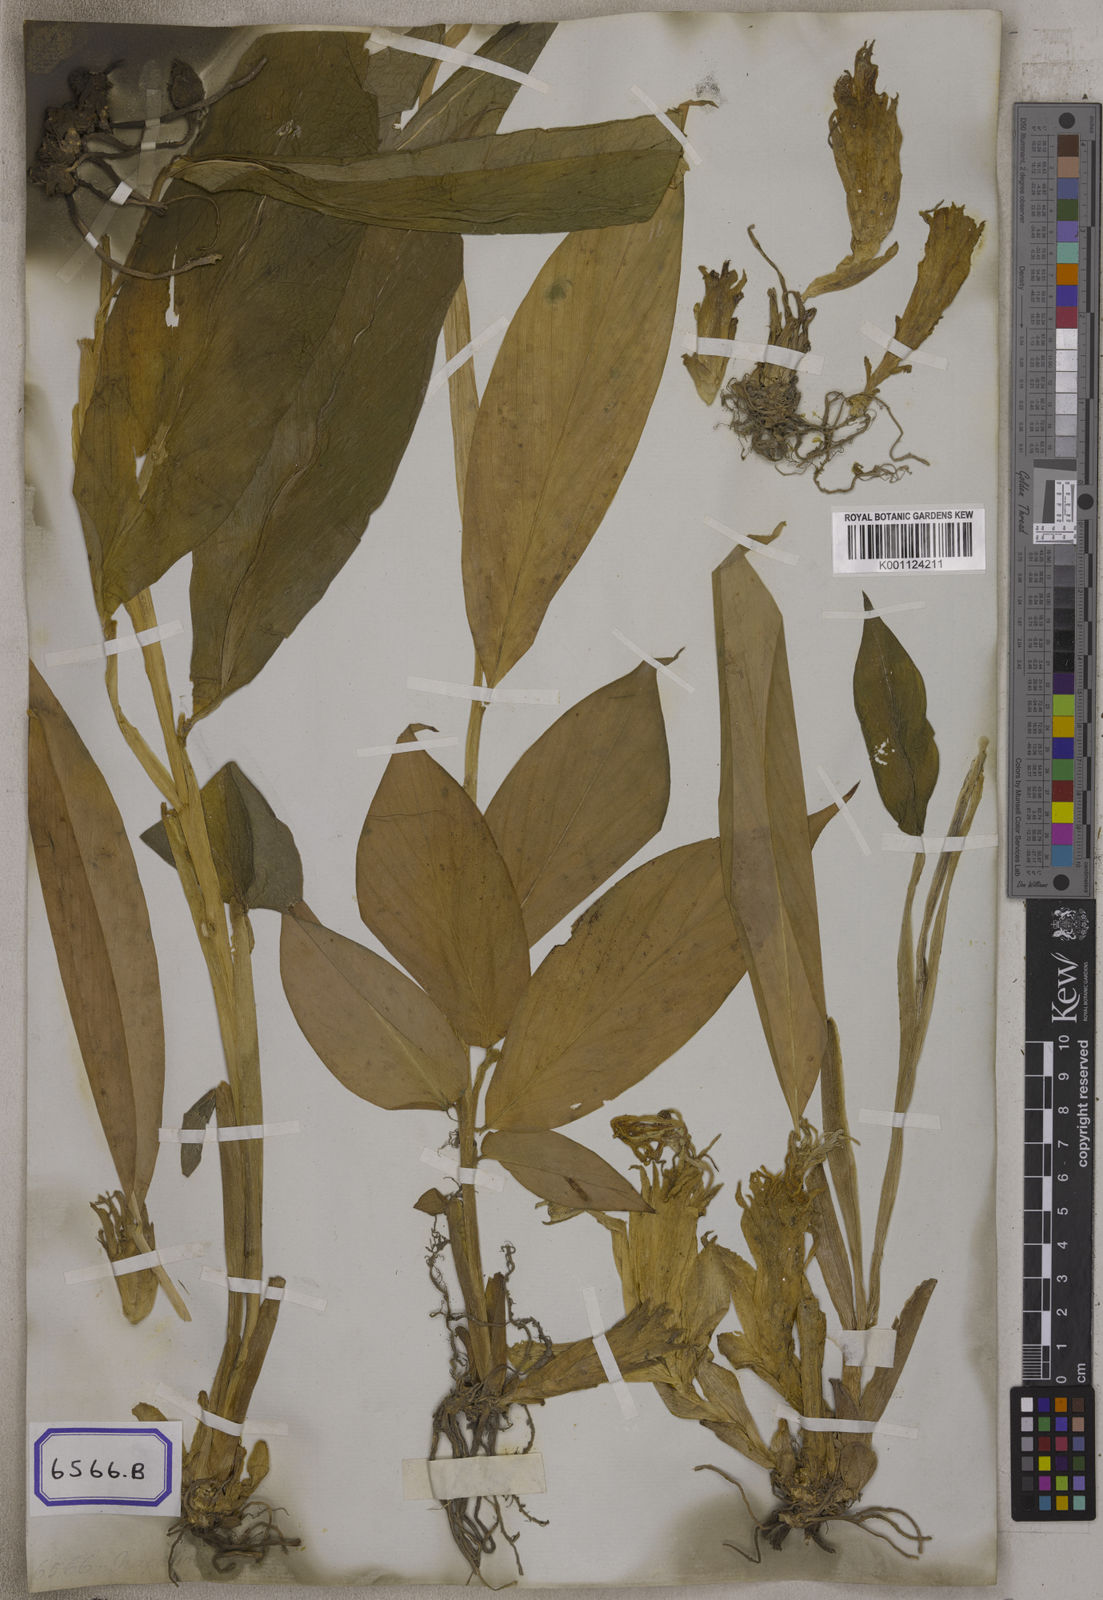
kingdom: Plantae
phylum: Tracheophyta
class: Liliopsida
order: Zingiberales
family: Zingiberaceae
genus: Zingiber
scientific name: Zingiber
